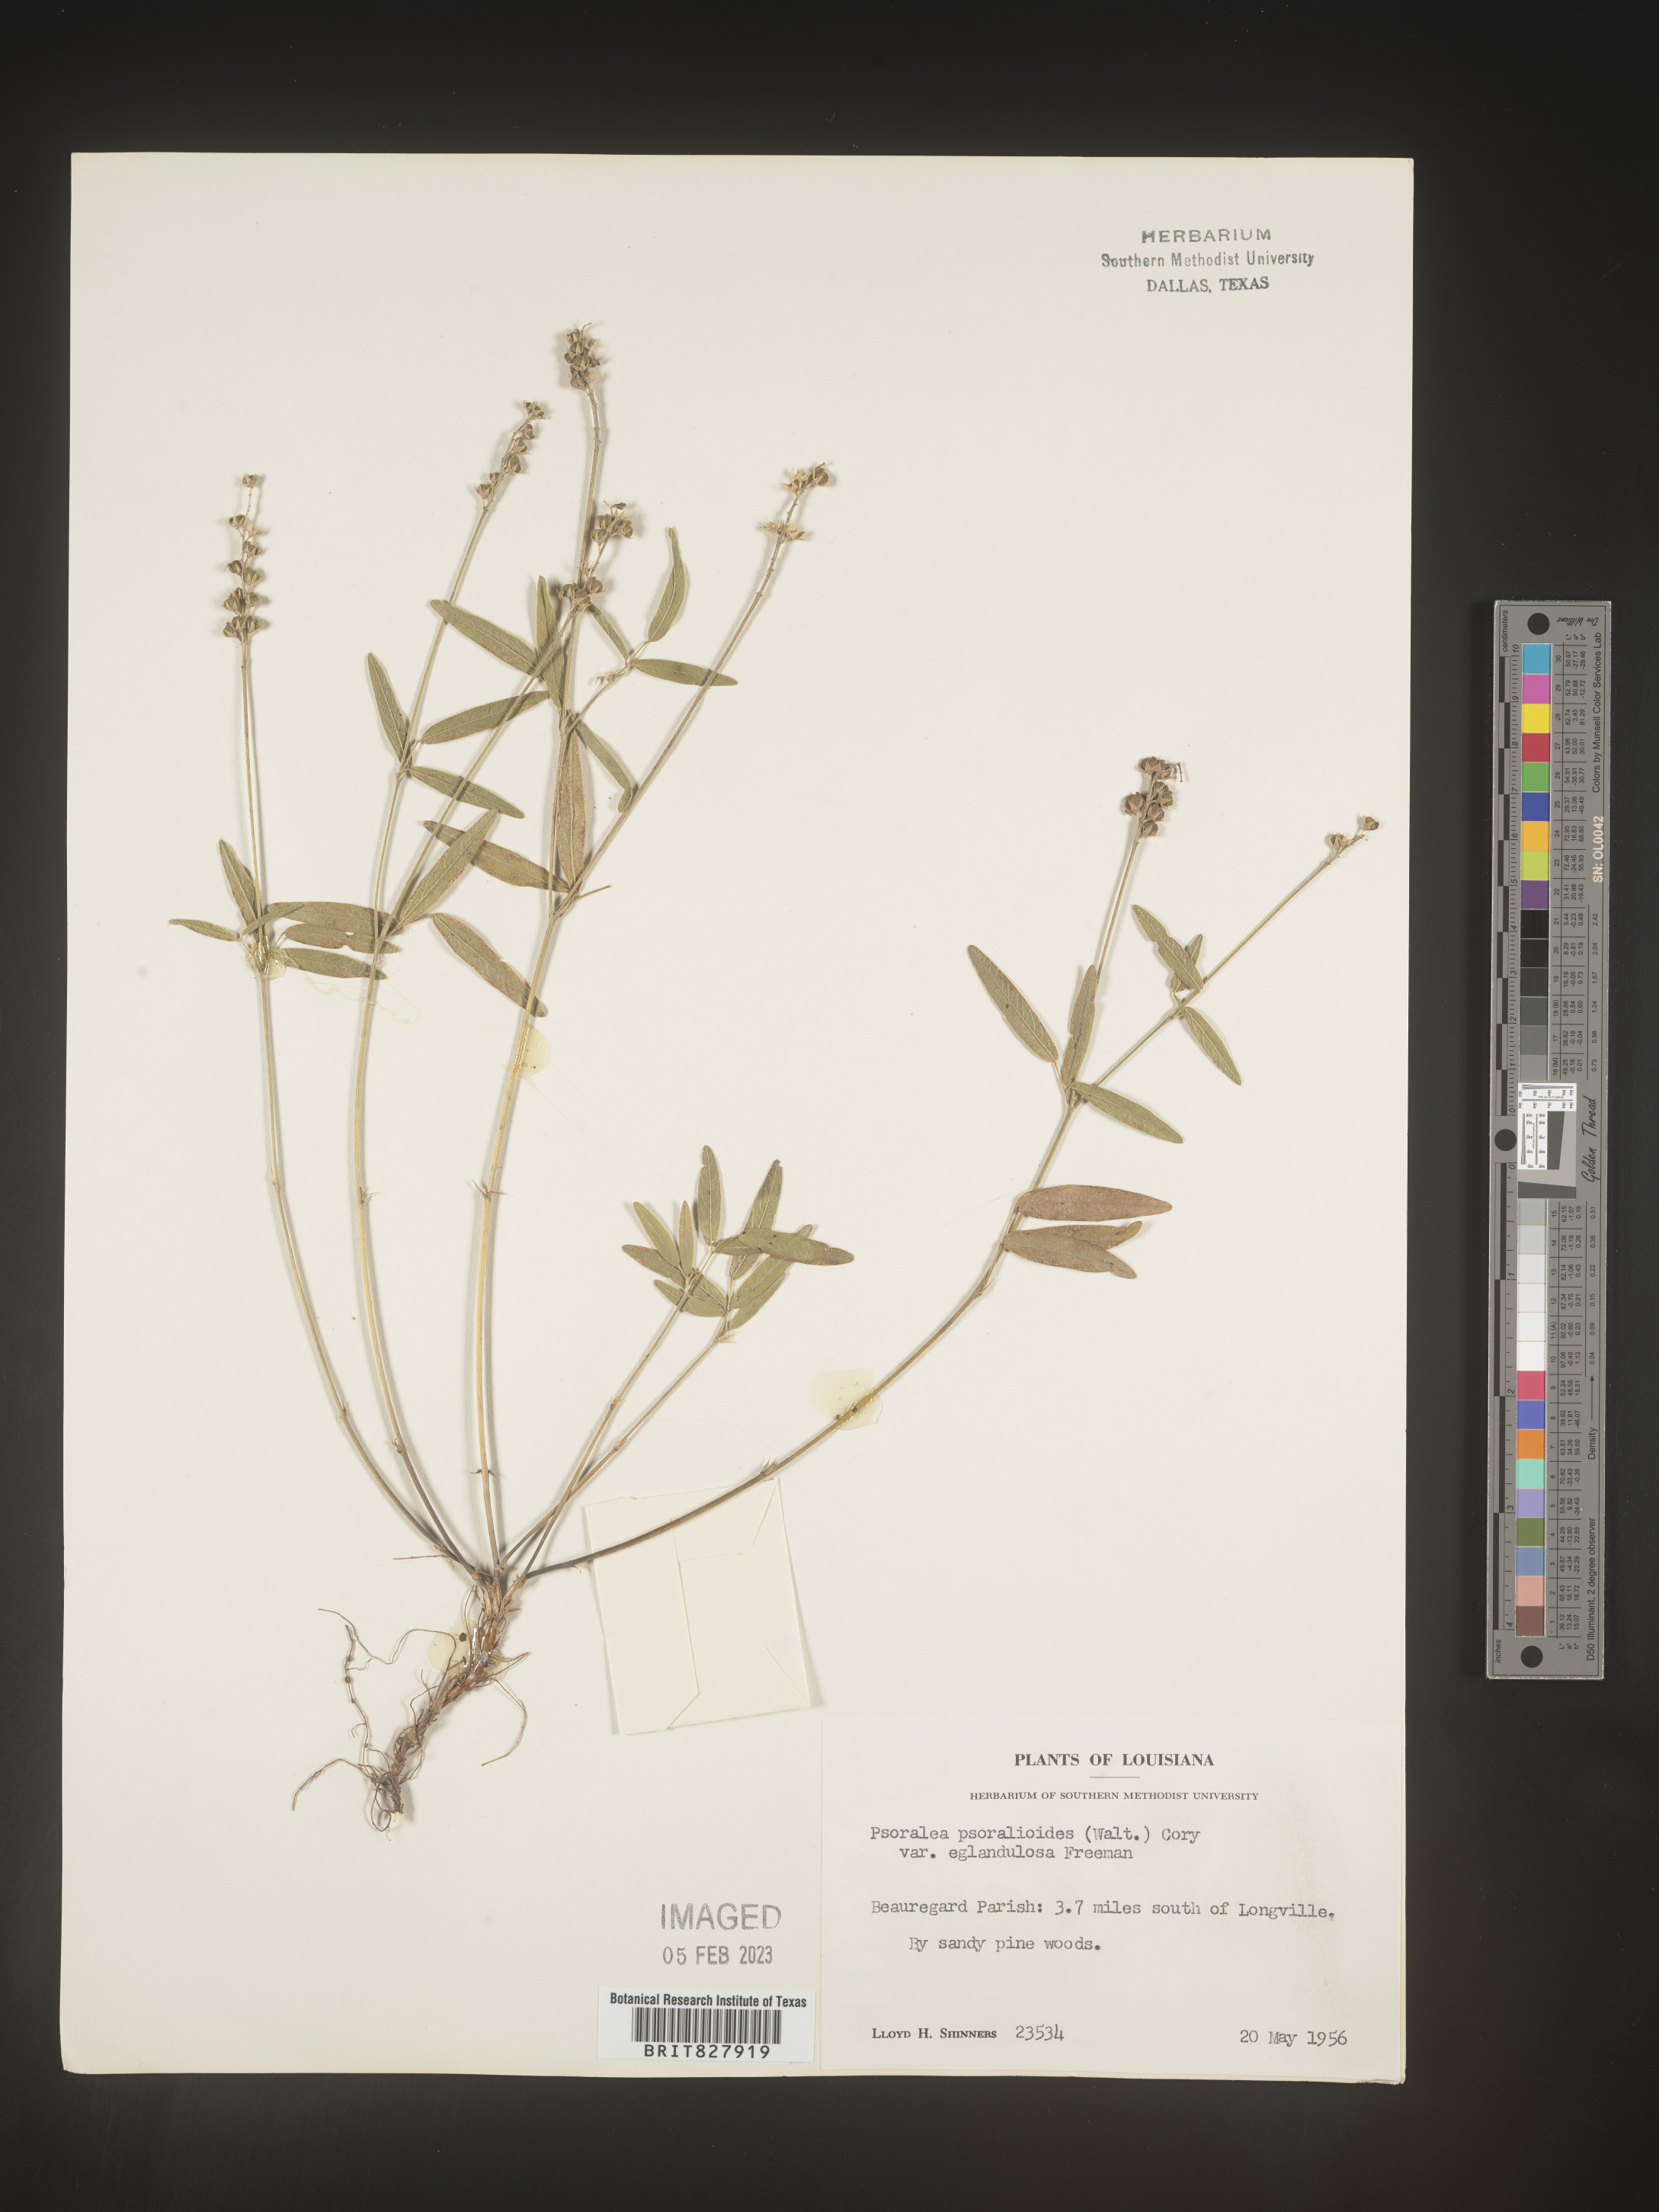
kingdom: Plantae
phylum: Tracheophyta
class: Magnoliopsida
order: Fabales
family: Fabaceae
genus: Orbexilum
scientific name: Orbexilum pedunculatum
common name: Sampson's snakeroot
